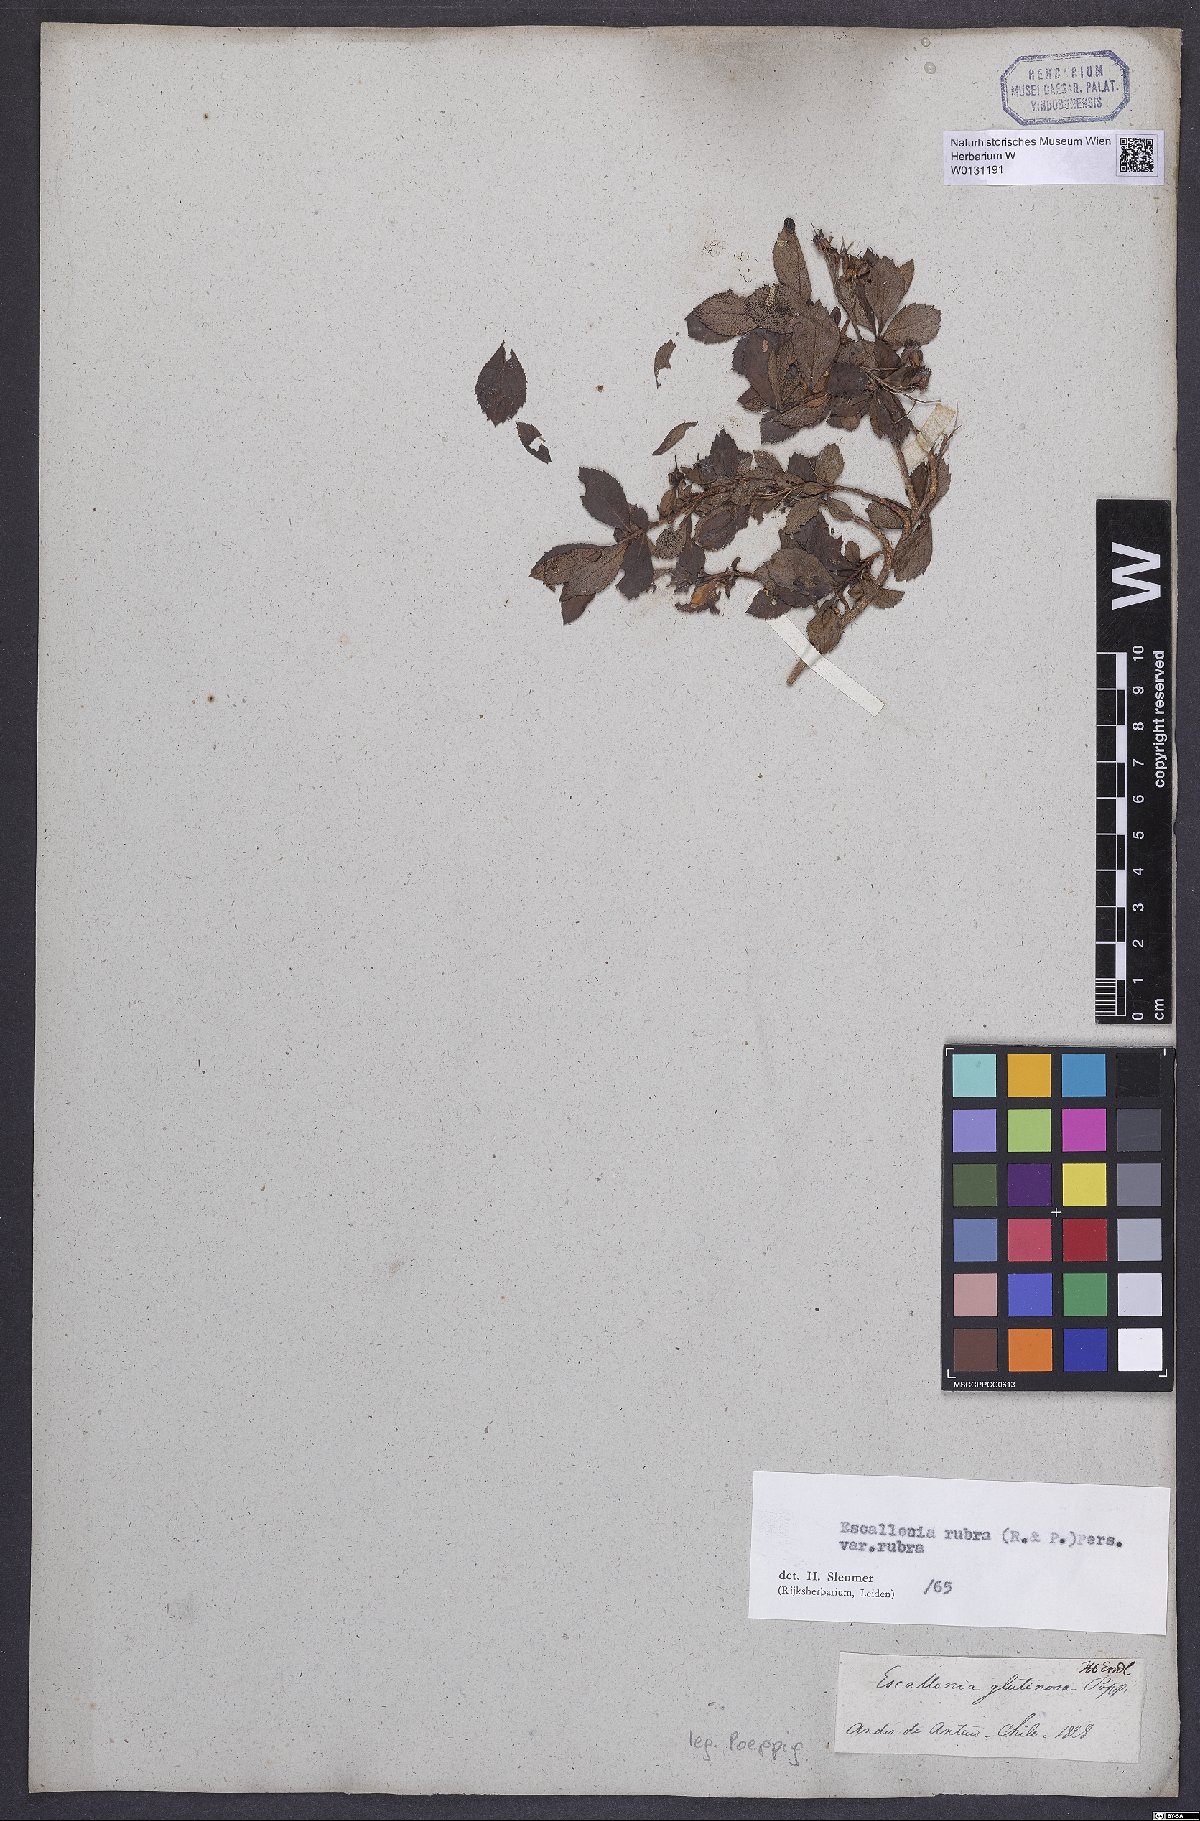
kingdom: Plantae
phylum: Tracheophyta
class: Magnoliopsida
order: Escalloniales
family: Escalloniaceae
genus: Escallonia
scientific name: Escallonia rubra
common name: Redclaws
